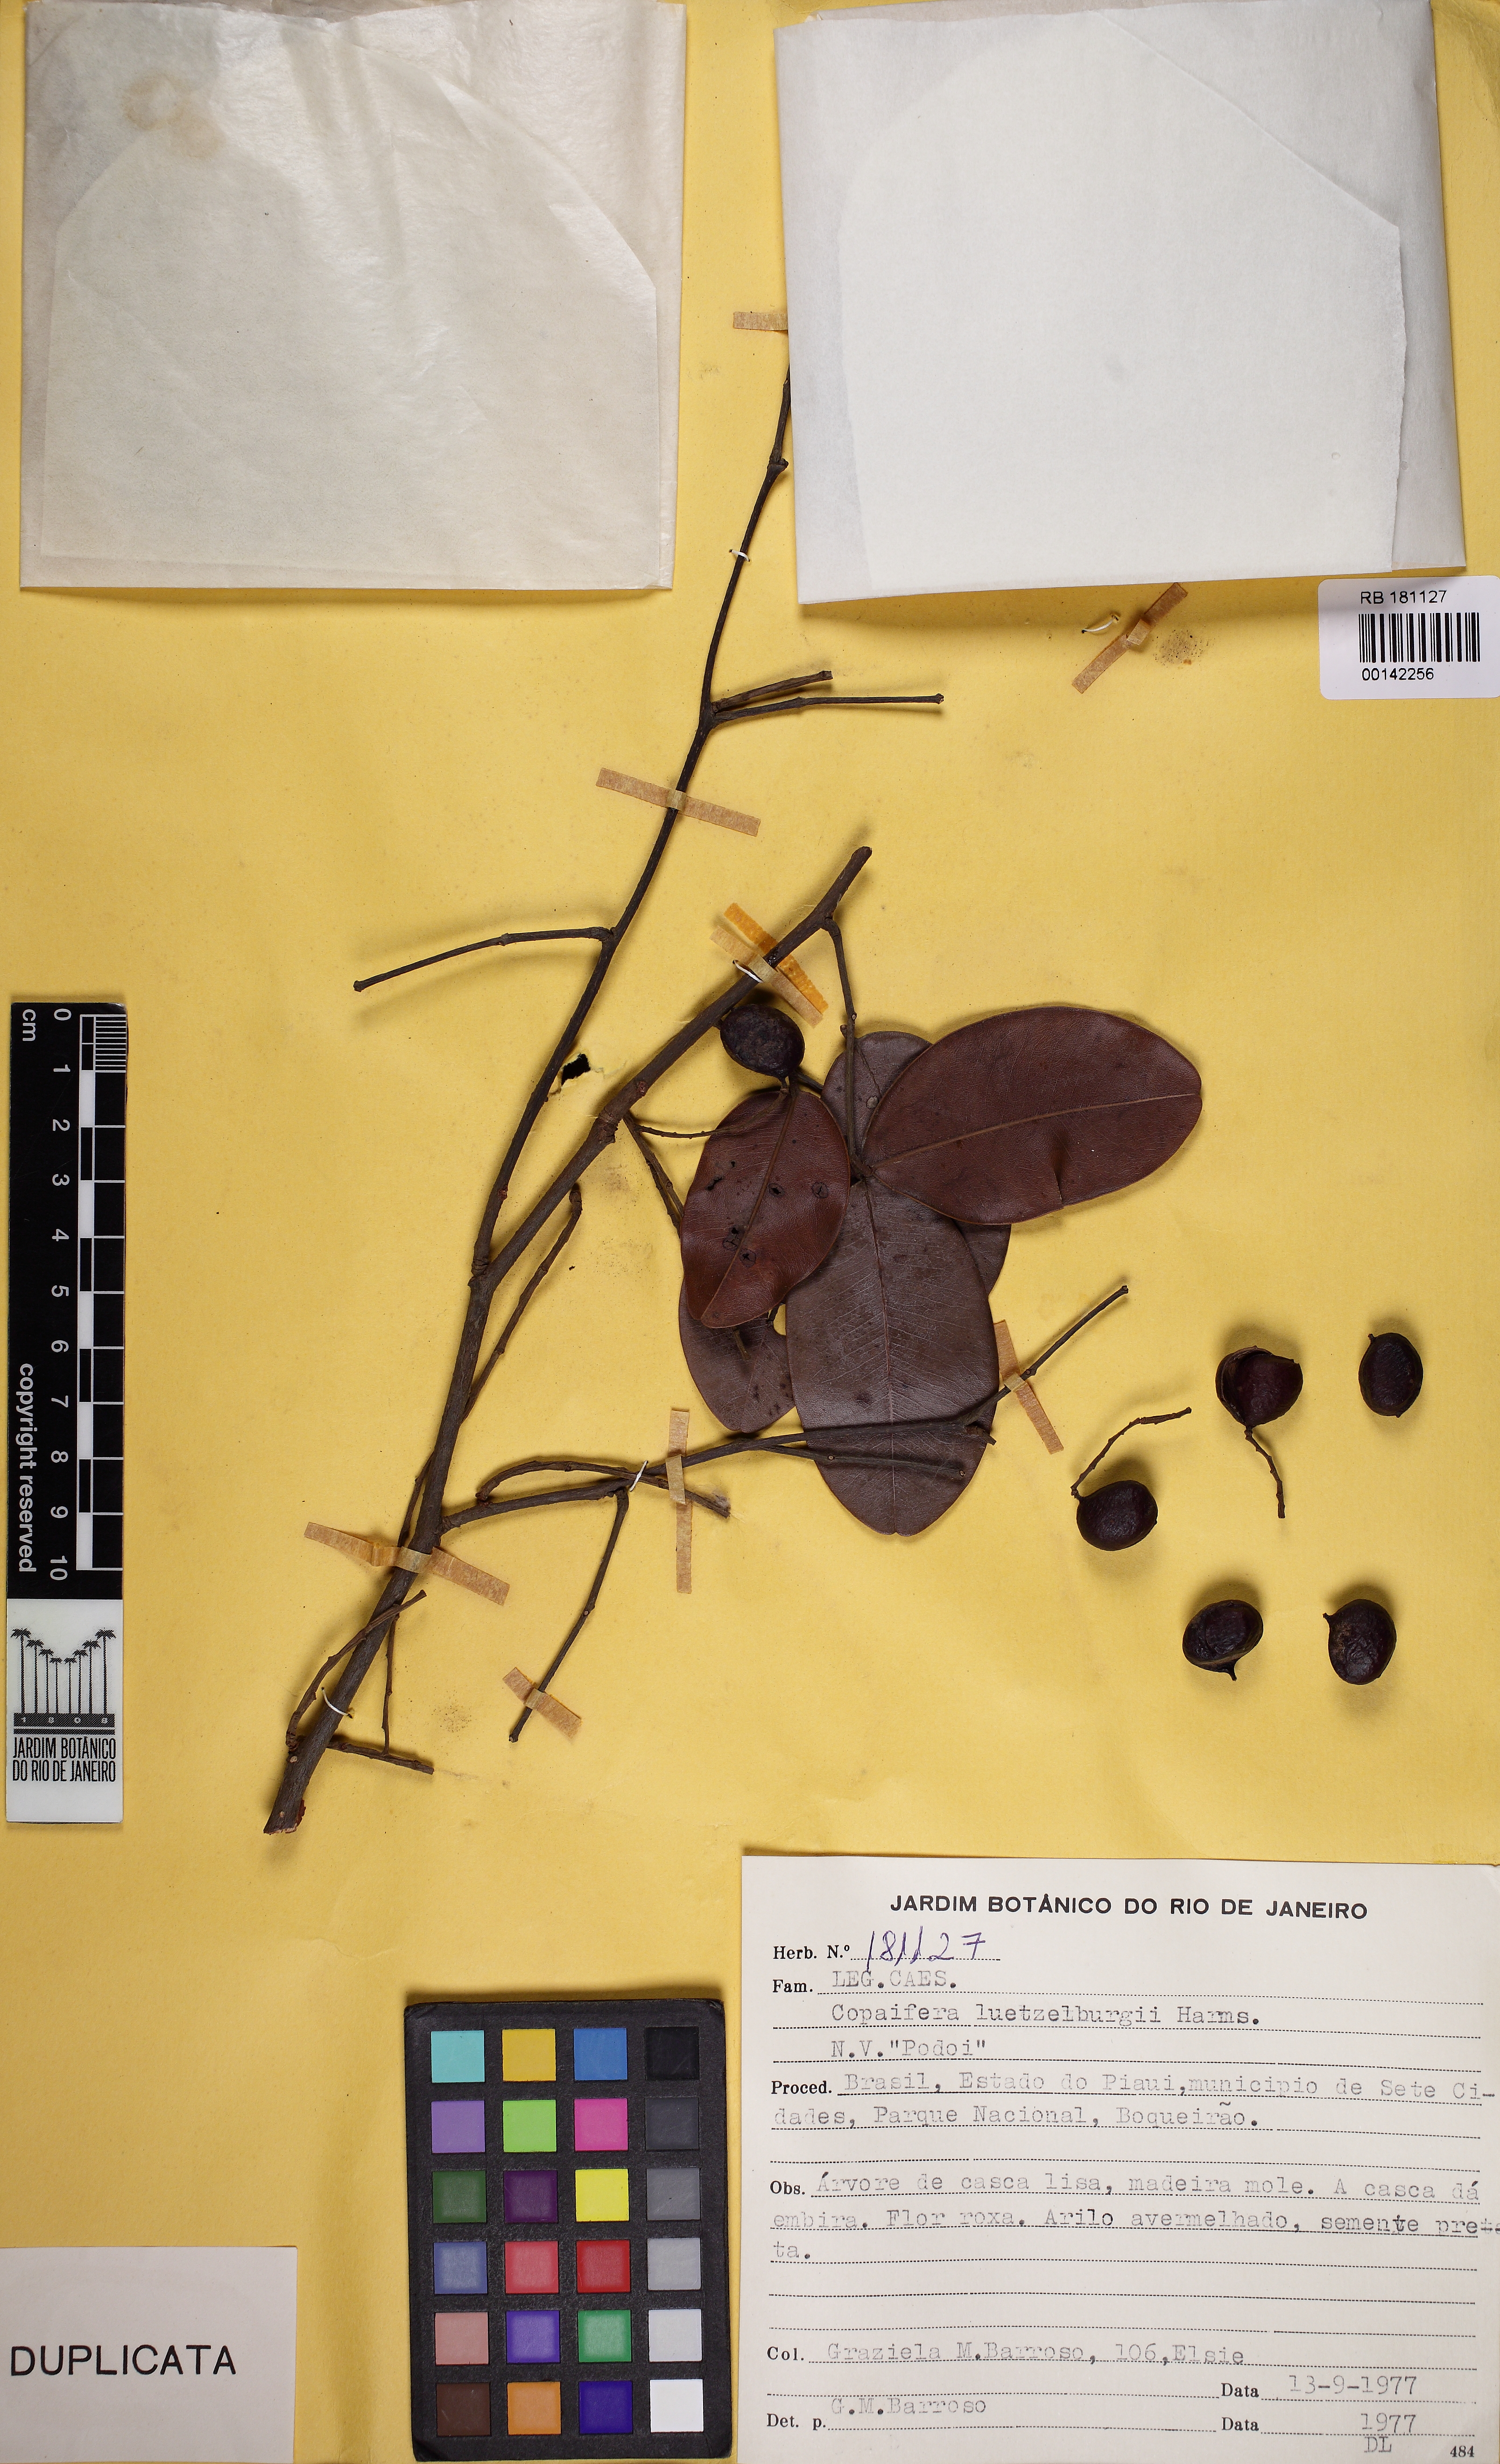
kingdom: Plantae
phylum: Tracheophyta
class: Magnoliopsida
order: Fabales
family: Fabaceae
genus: Copaifera
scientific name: Copaifera luetzelburgii
